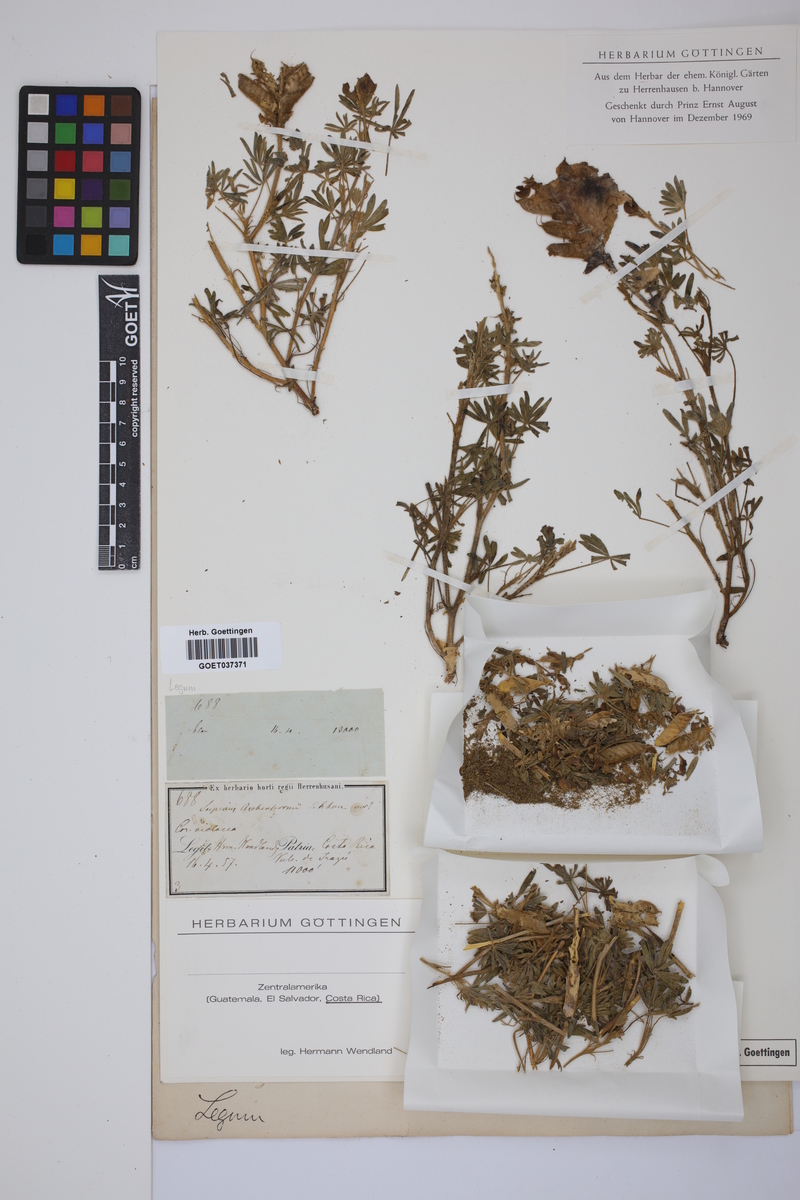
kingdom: Plantae
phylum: Tracheophyta
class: Magnoliopsida
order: Fabales
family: Fabaceae
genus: Lupinus
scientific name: Lupinus aschenbornii
